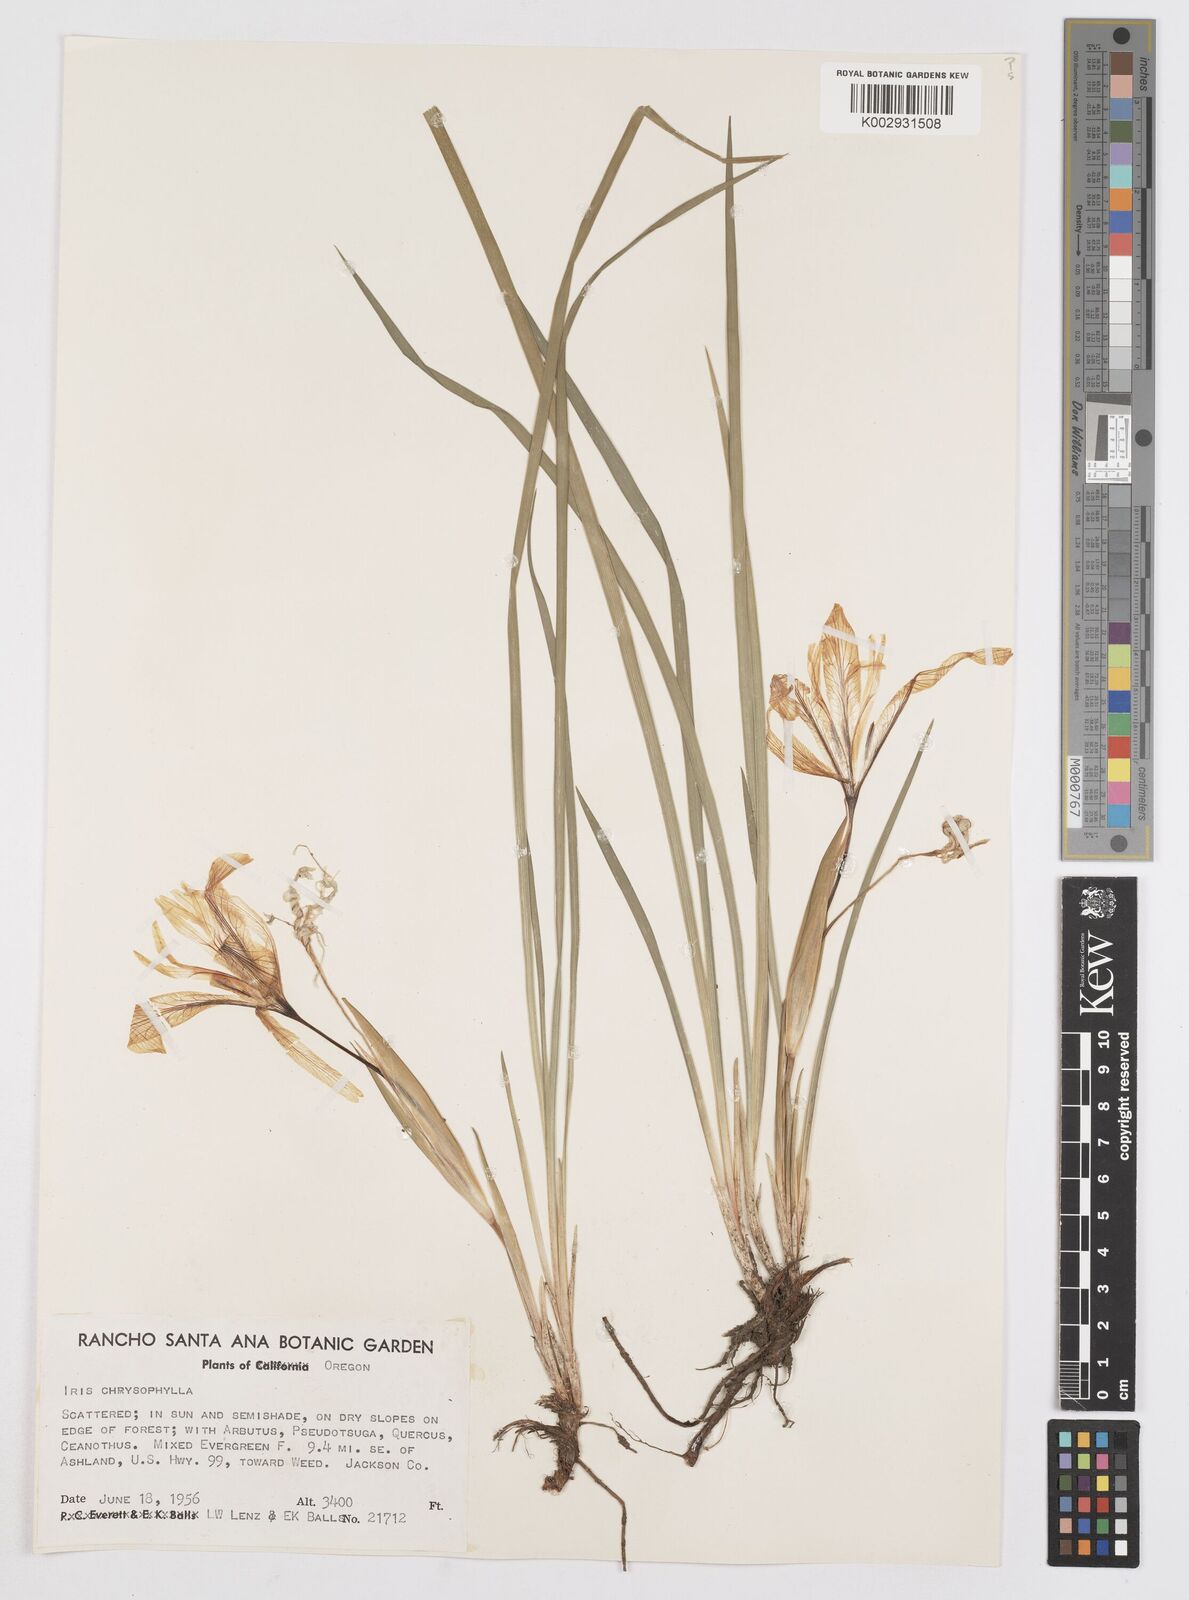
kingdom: Plantae
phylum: Tracheophyta
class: Liliopsida
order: Asparagales
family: Iridaceae
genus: Iris
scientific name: Iris chrysophylla
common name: Yellow-leaf iris
